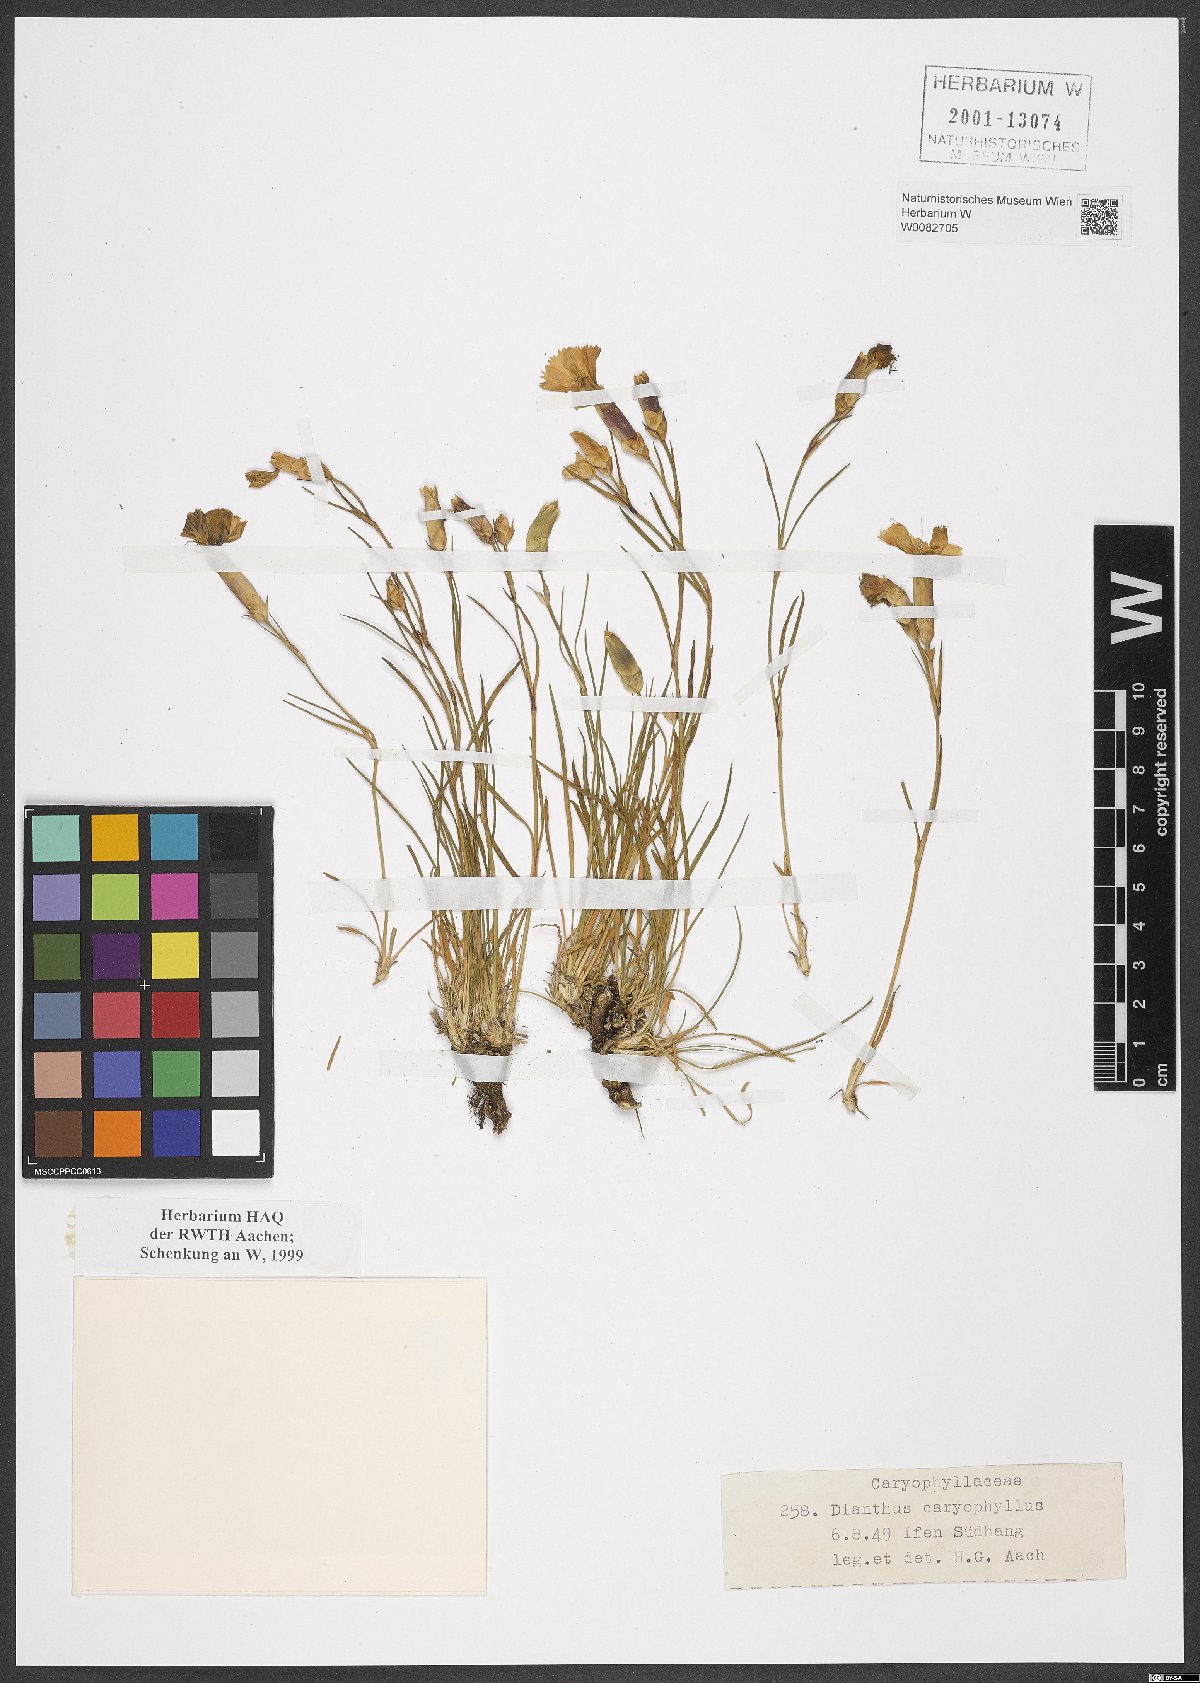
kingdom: Plantae
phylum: Tracheophyta
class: Magnoliopsida
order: Caryophyllales
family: Caryophyllaceae
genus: Dianthus
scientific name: Dianthus caryophyllus
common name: Clove pink
